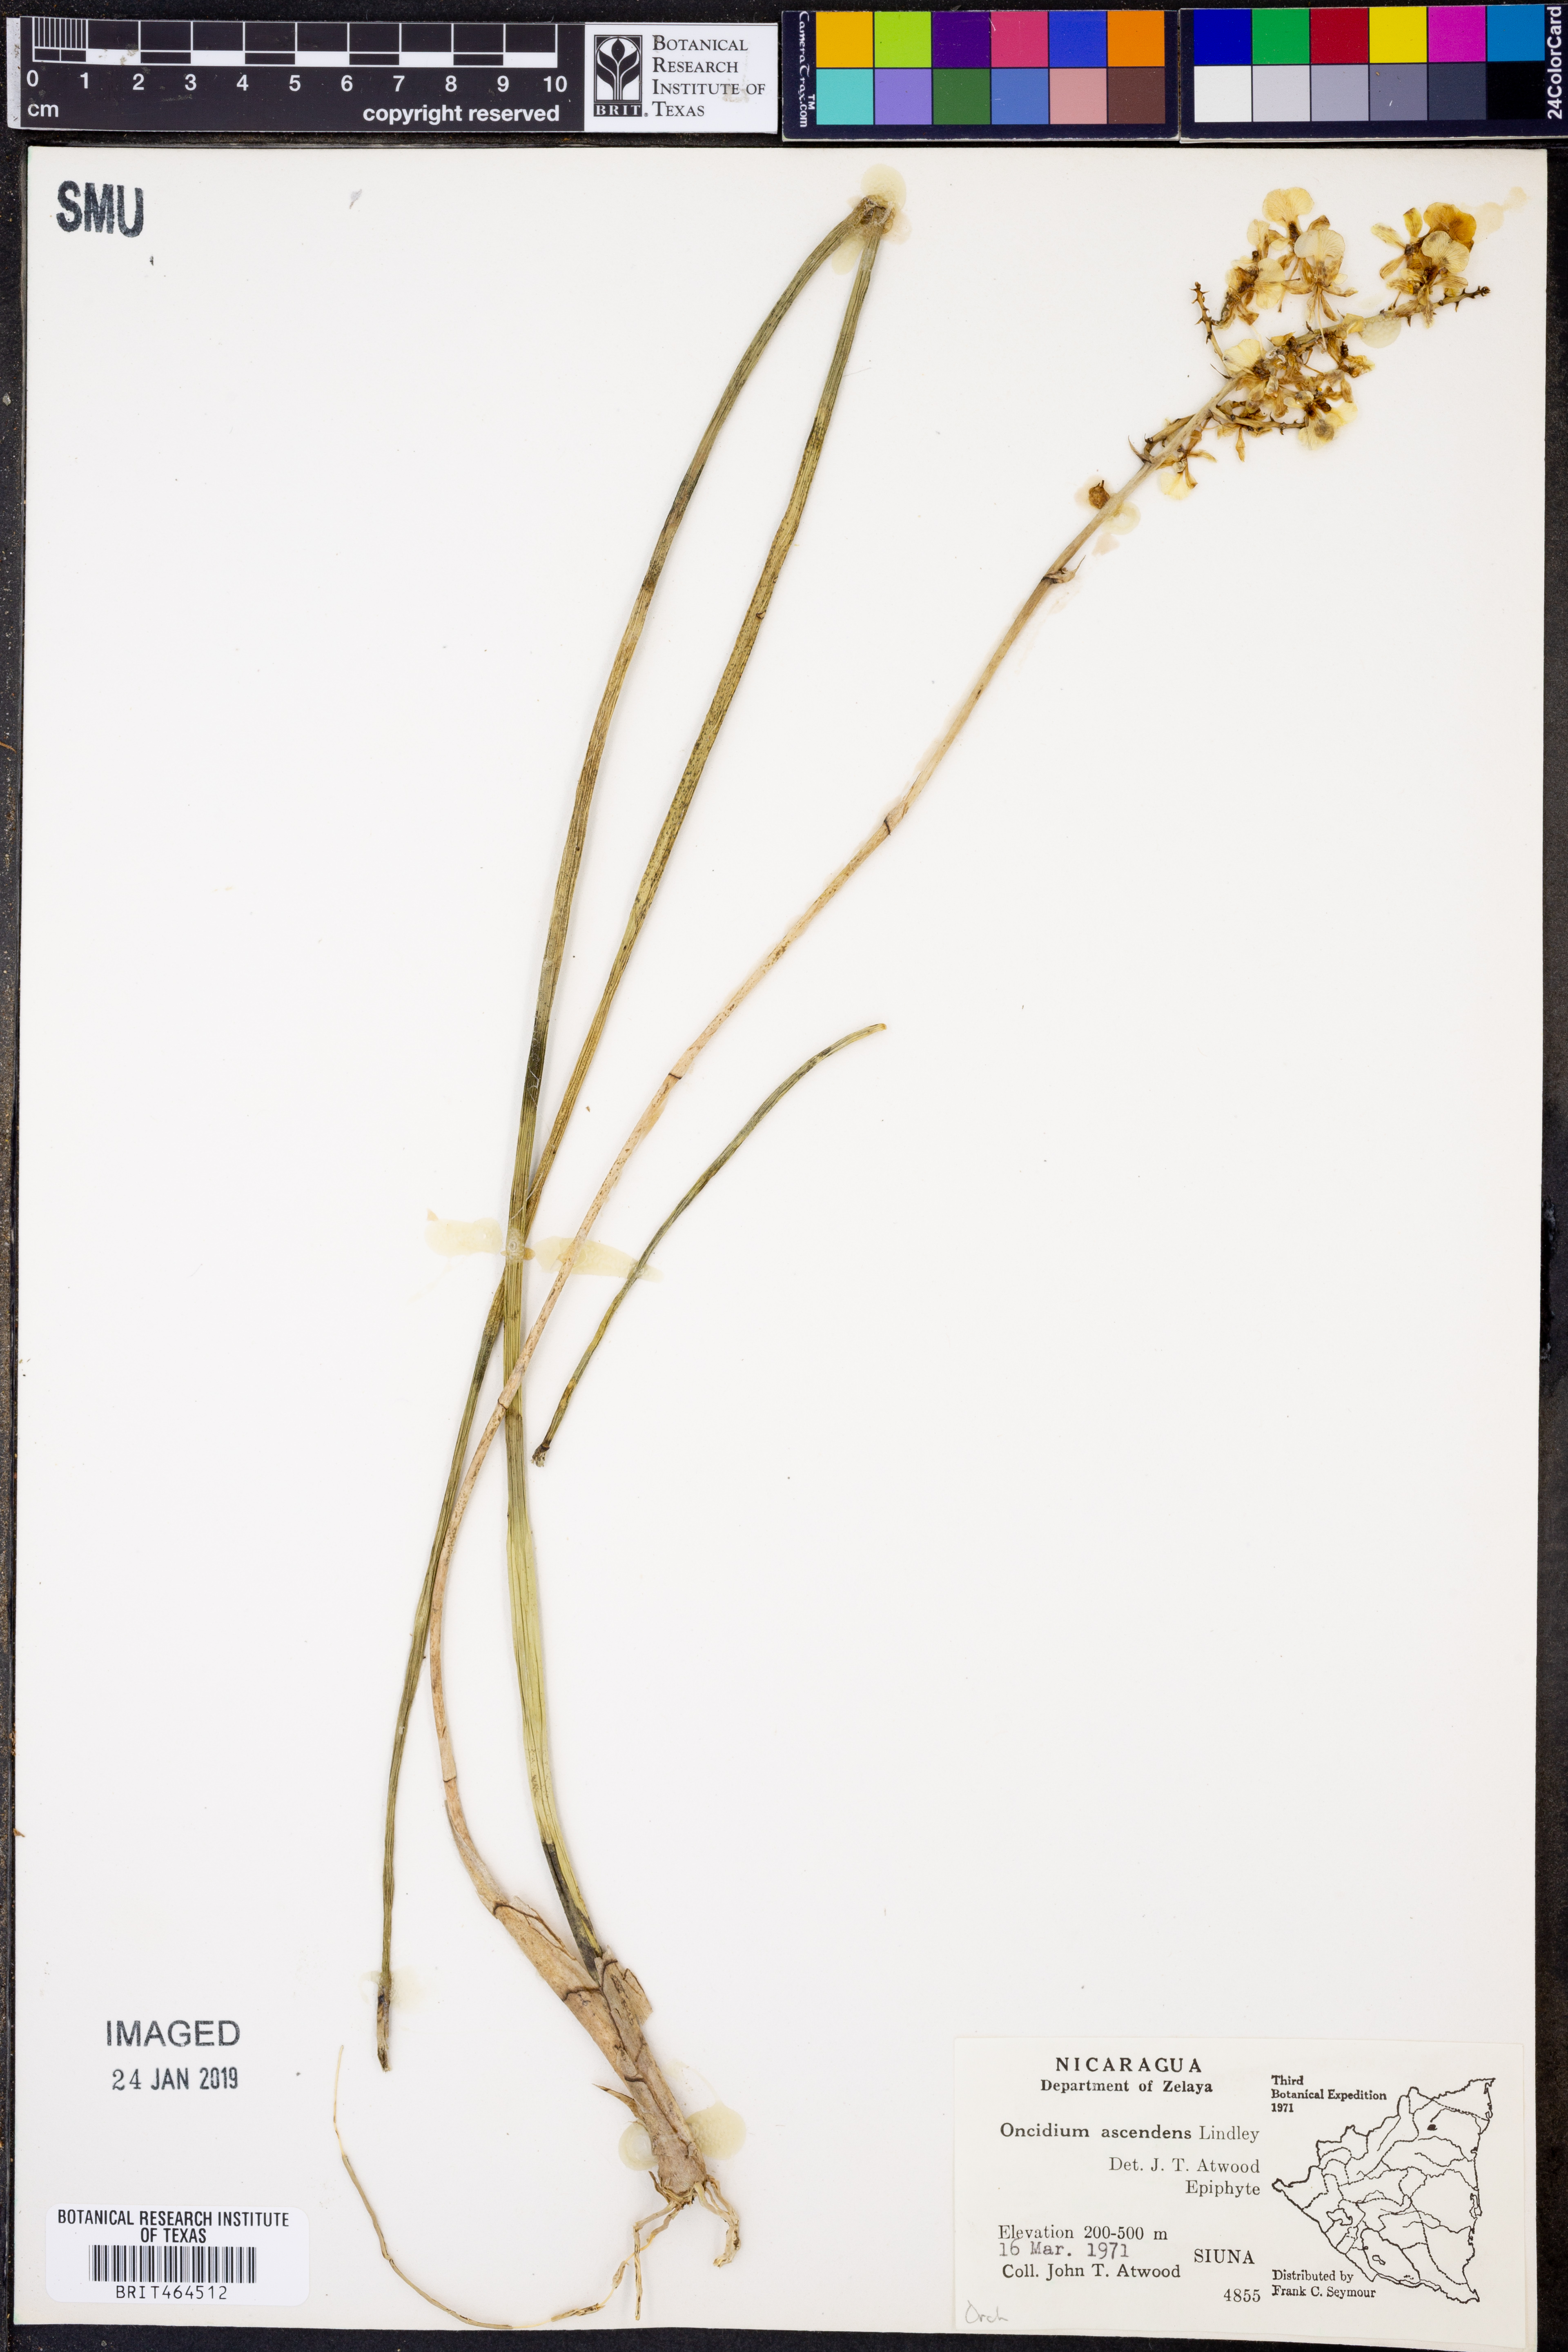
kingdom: Plantae
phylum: Tracheophyta
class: Liliopsida
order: Asparagales
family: Orchidaceae
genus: Trichocentrum
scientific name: Trichocentrum ascendens
